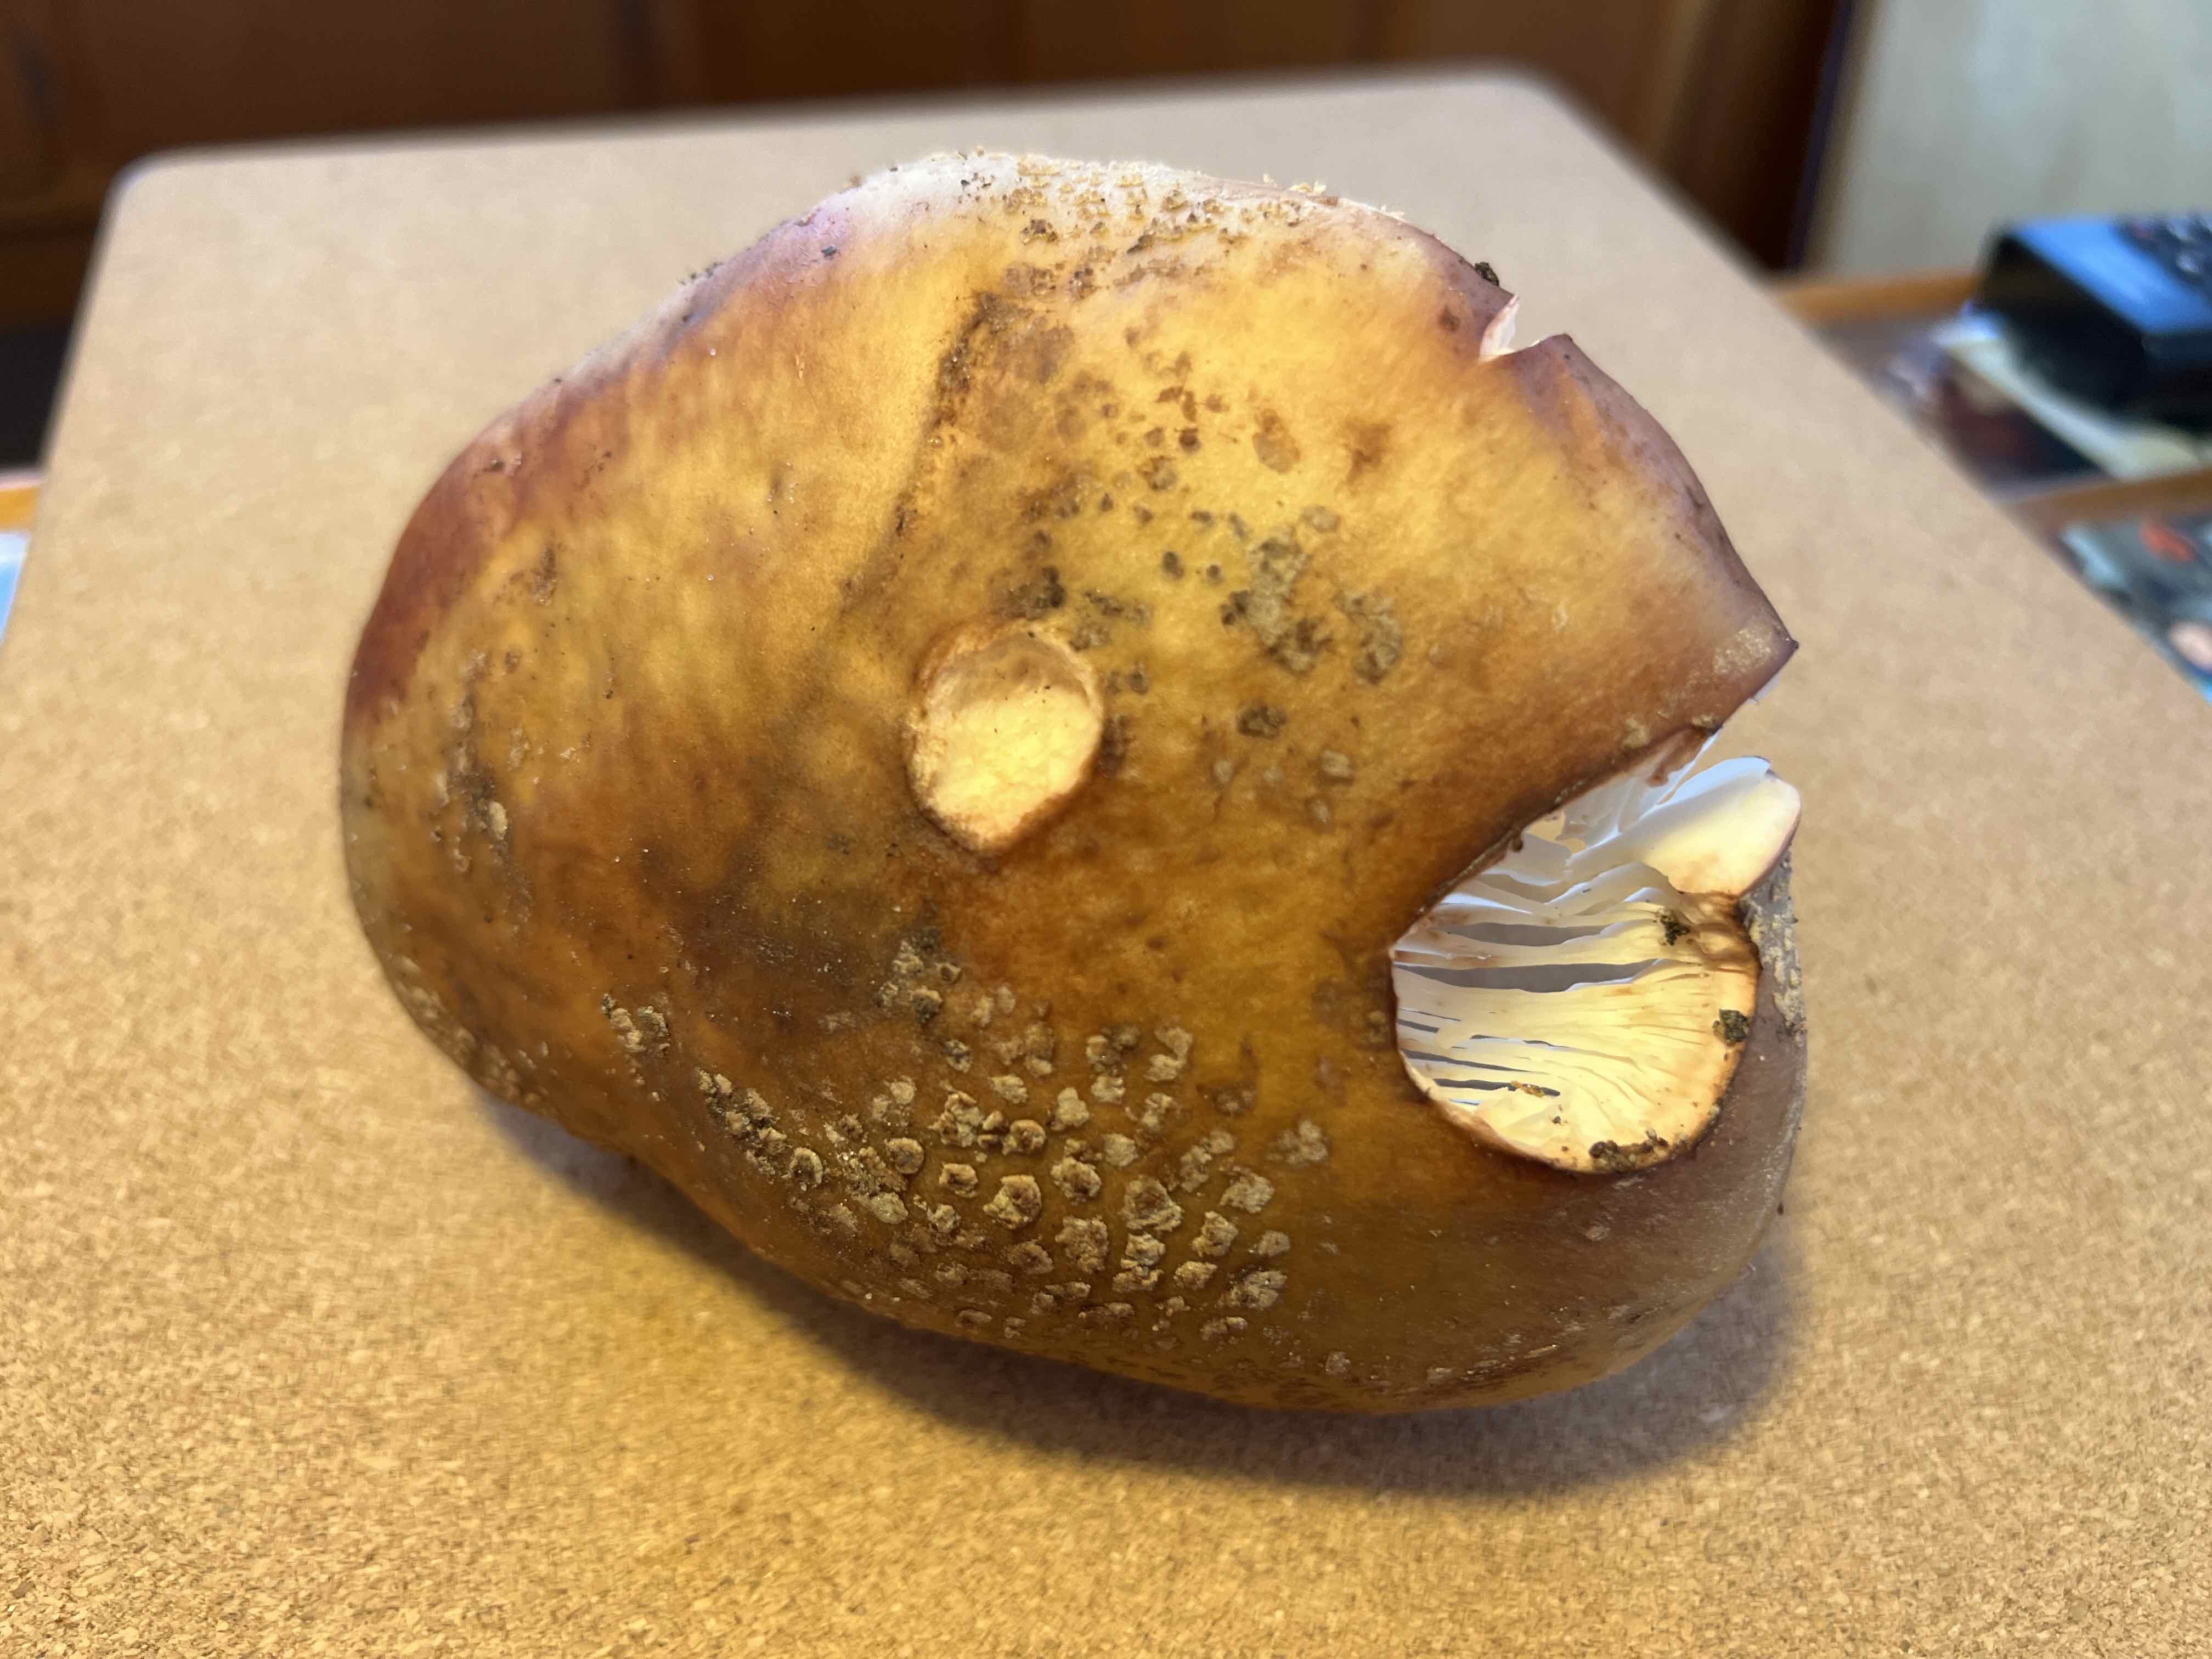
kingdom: Fungi
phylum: Basidiomycota
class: Agaricomycetes
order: Agaricales
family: Amanitaceae
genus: Amanita
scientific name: Amanita rubescens
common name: rødmende fluesvamp
